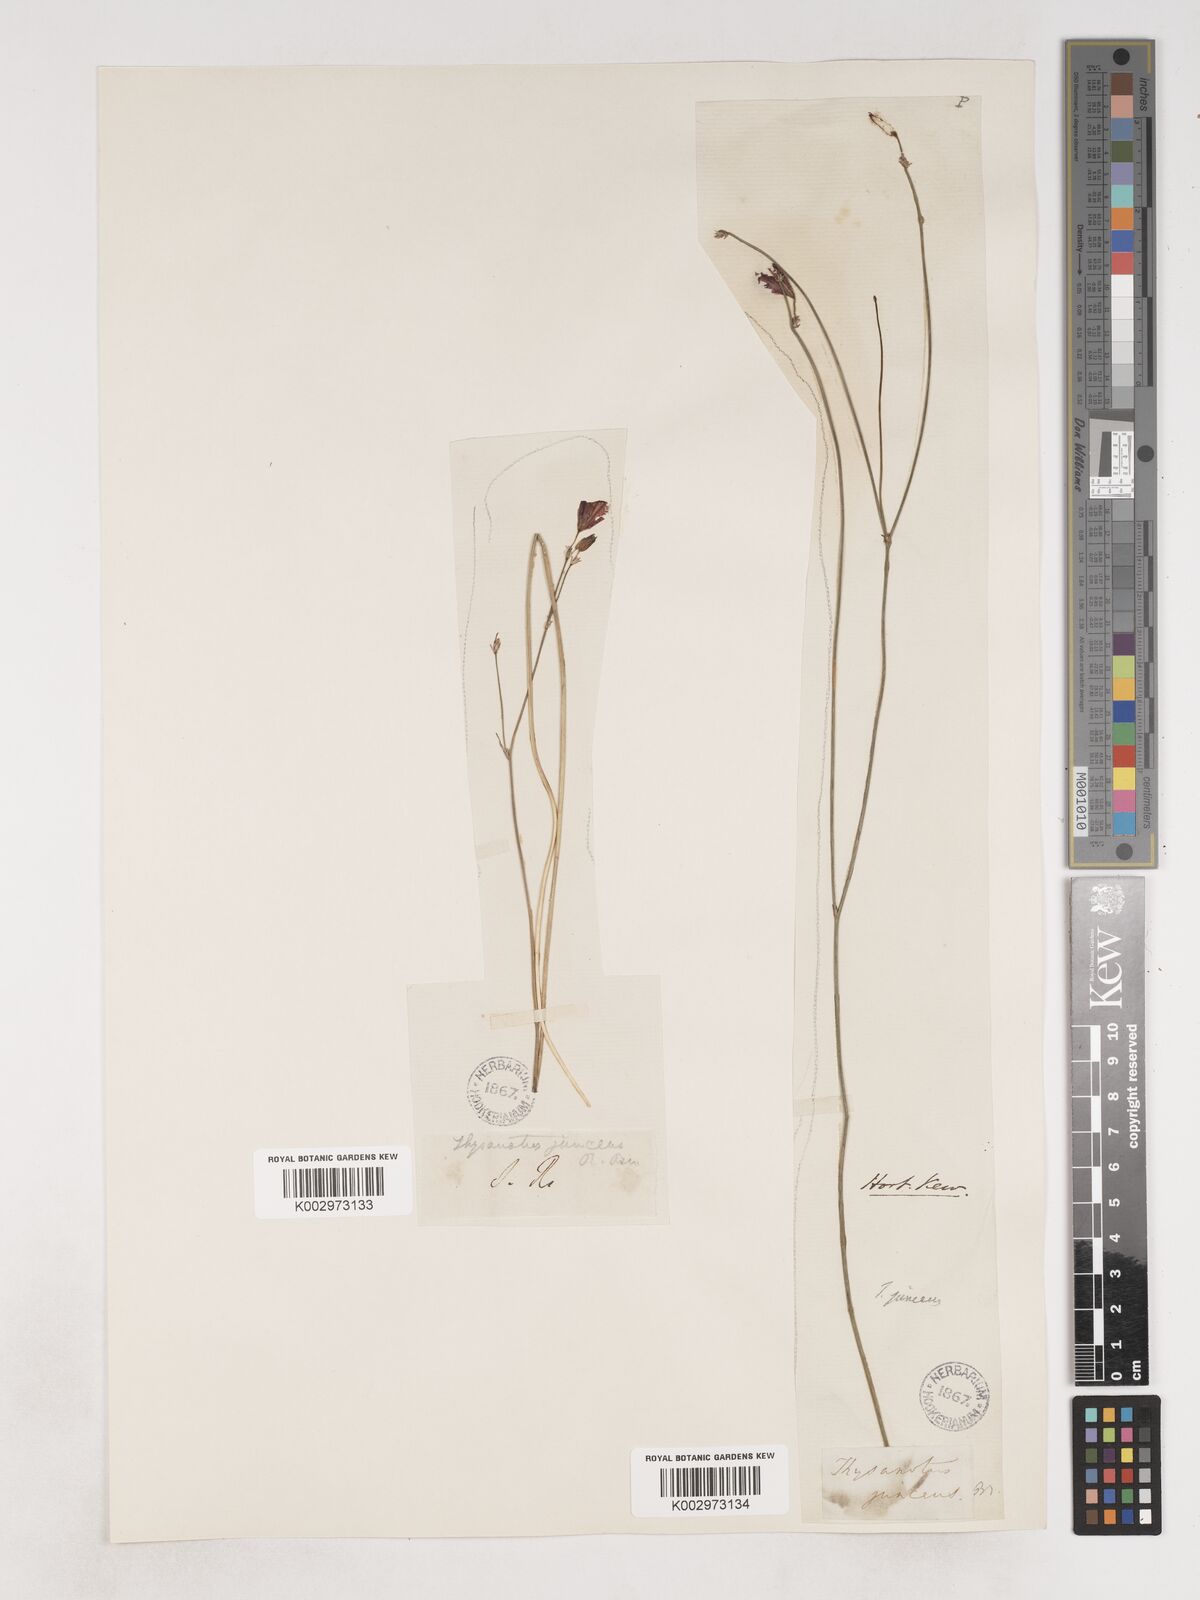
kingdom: Plantae
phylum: Tracheophyta
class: Liliopsida
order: Asparagales
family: Asparagaceae
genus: Thysanotus
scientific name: Thysanotus juncifolius
